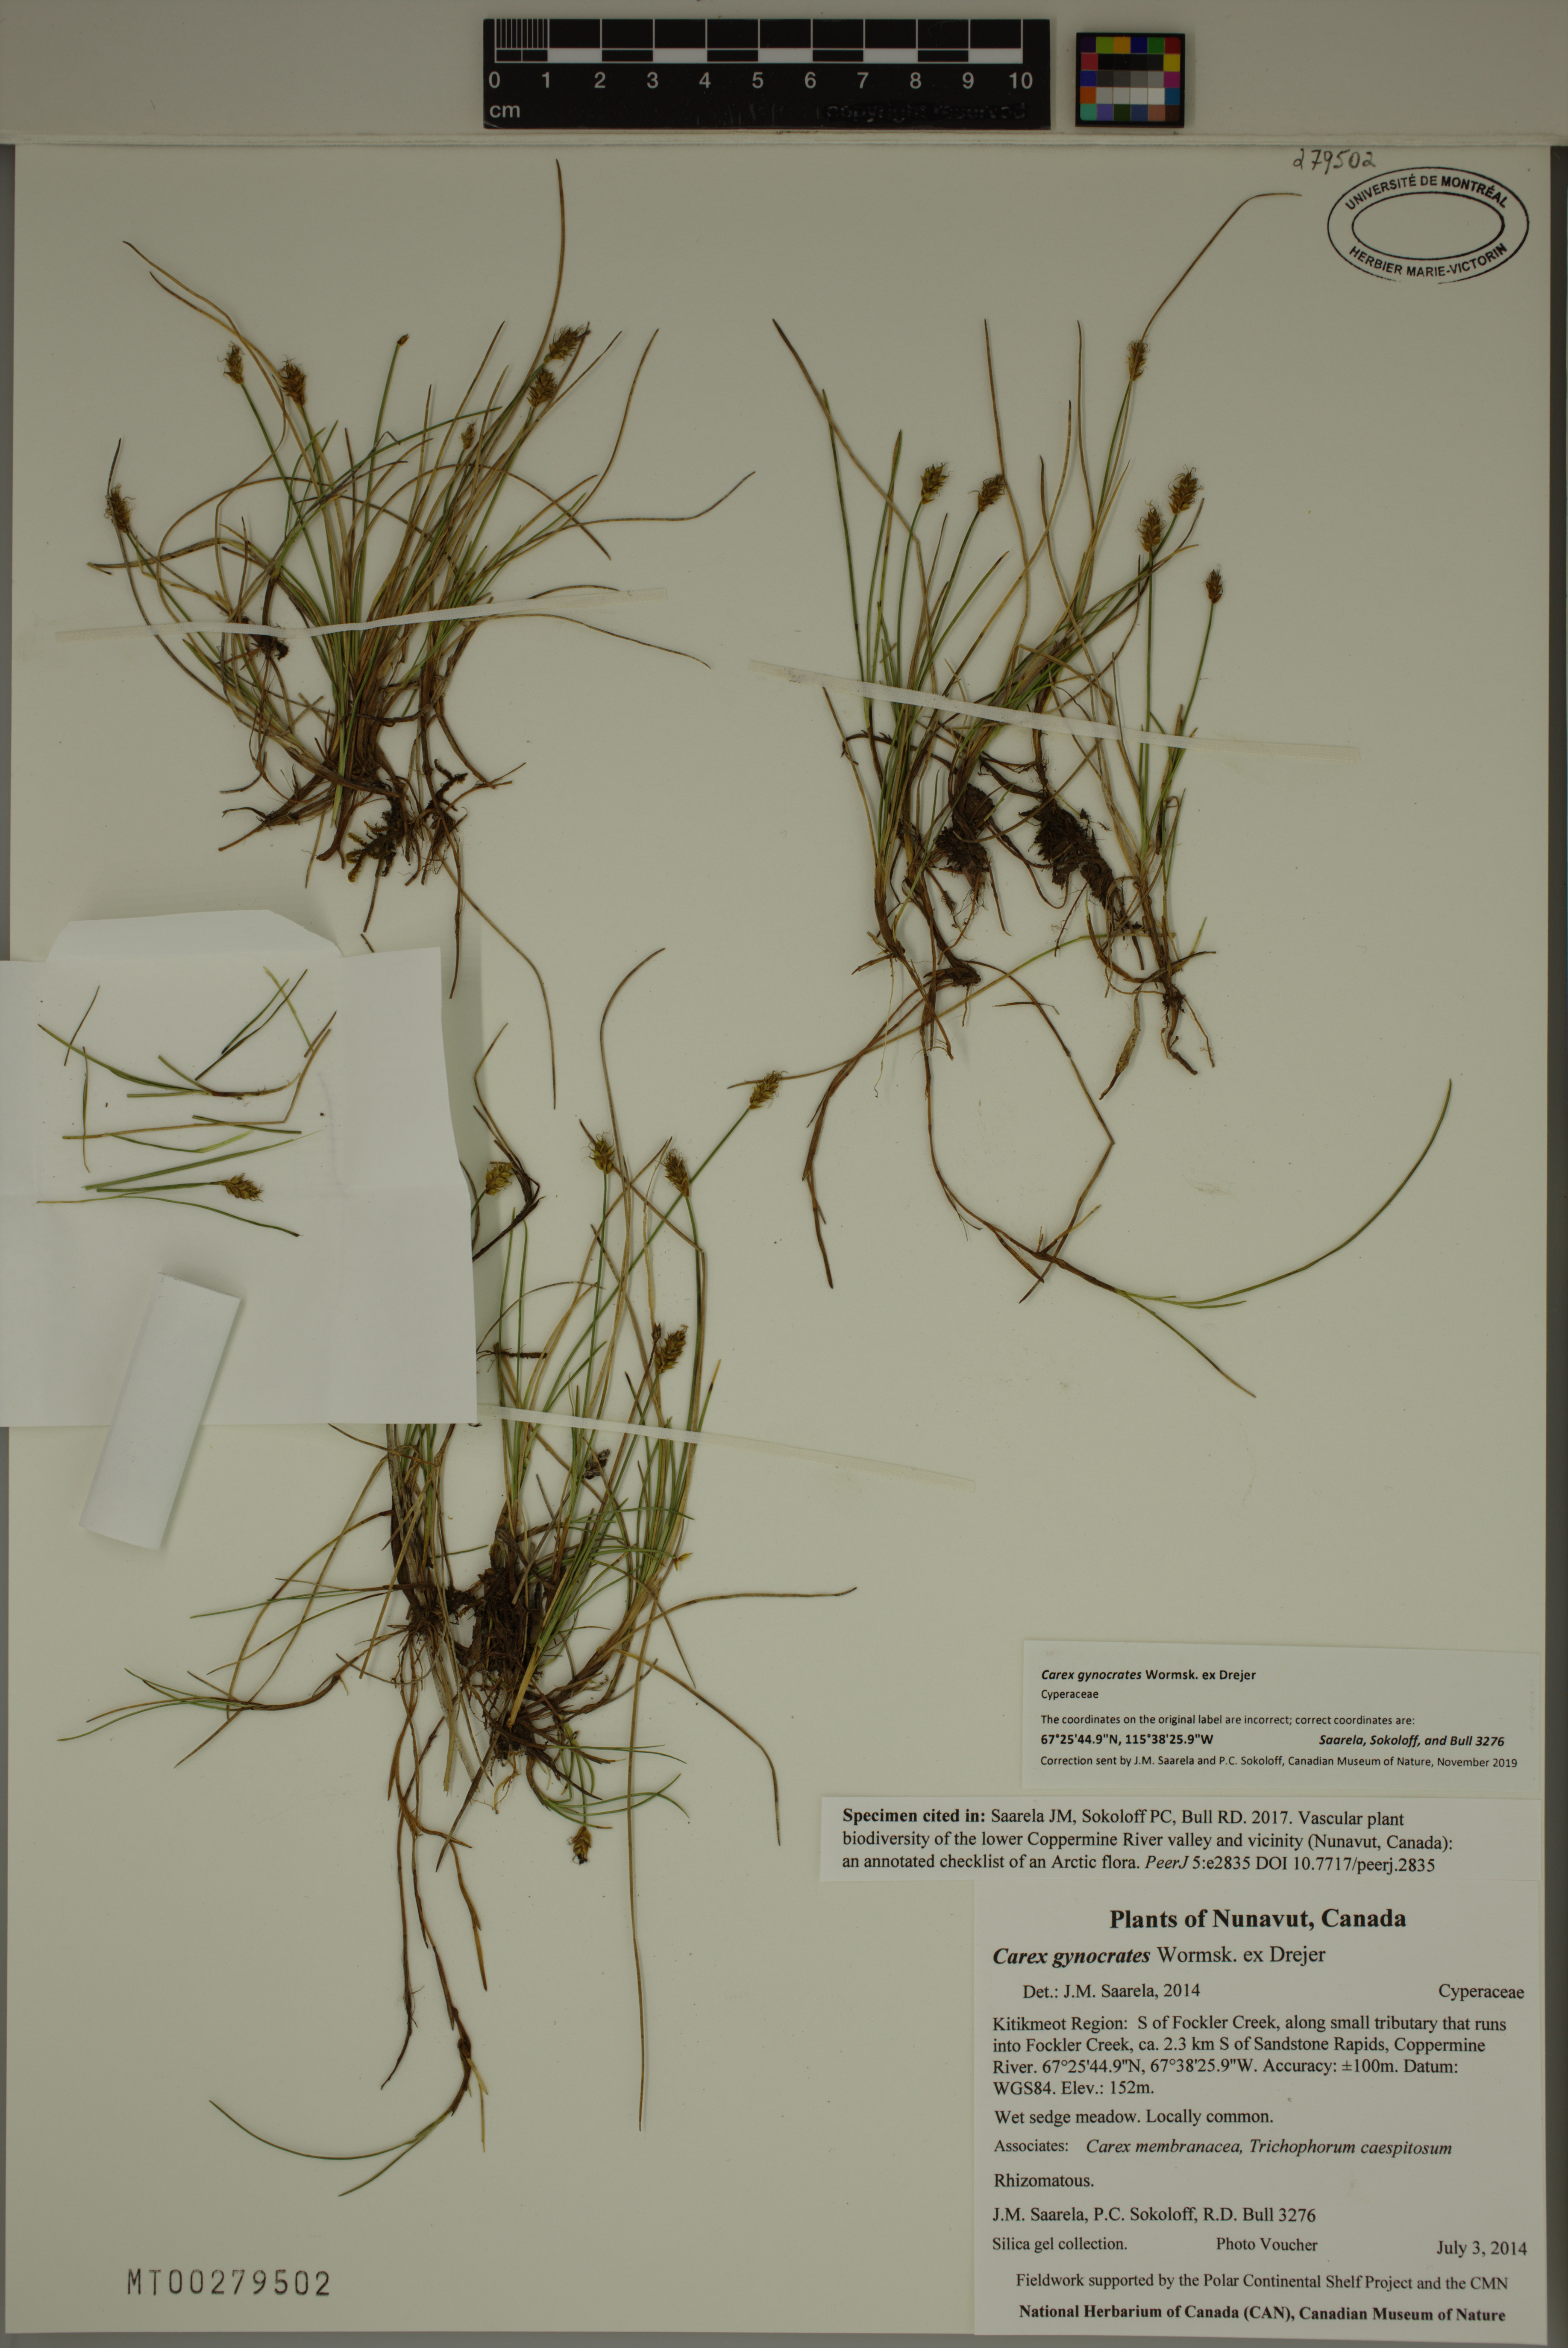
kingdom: Plantae
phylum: Tracheophyta
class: Liliopsida
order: Poales
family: Cyperaceae
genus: Carex
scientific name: Carex nardina
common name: Nard sedge
